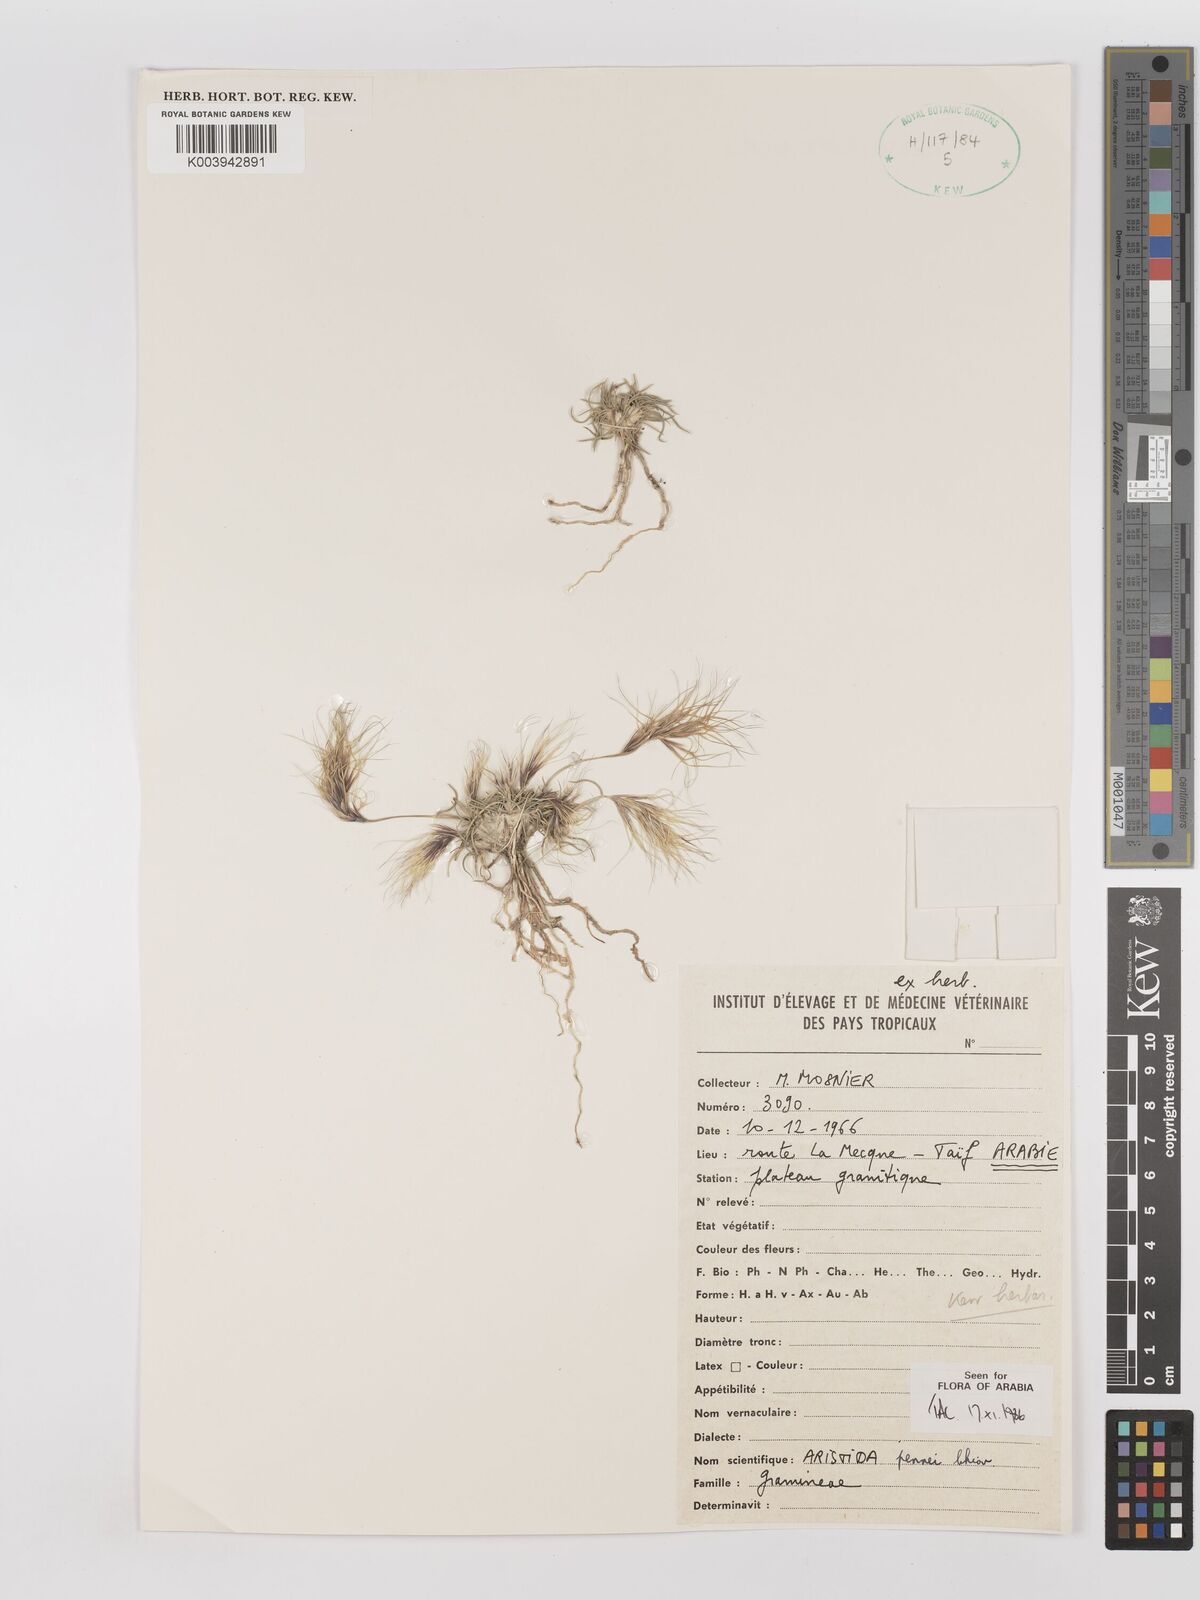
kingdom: Plantae
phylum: Tracheophyta
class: Liliopsida
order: Poales
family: Poaceae
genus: Aristida
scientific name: Aristida pennei
